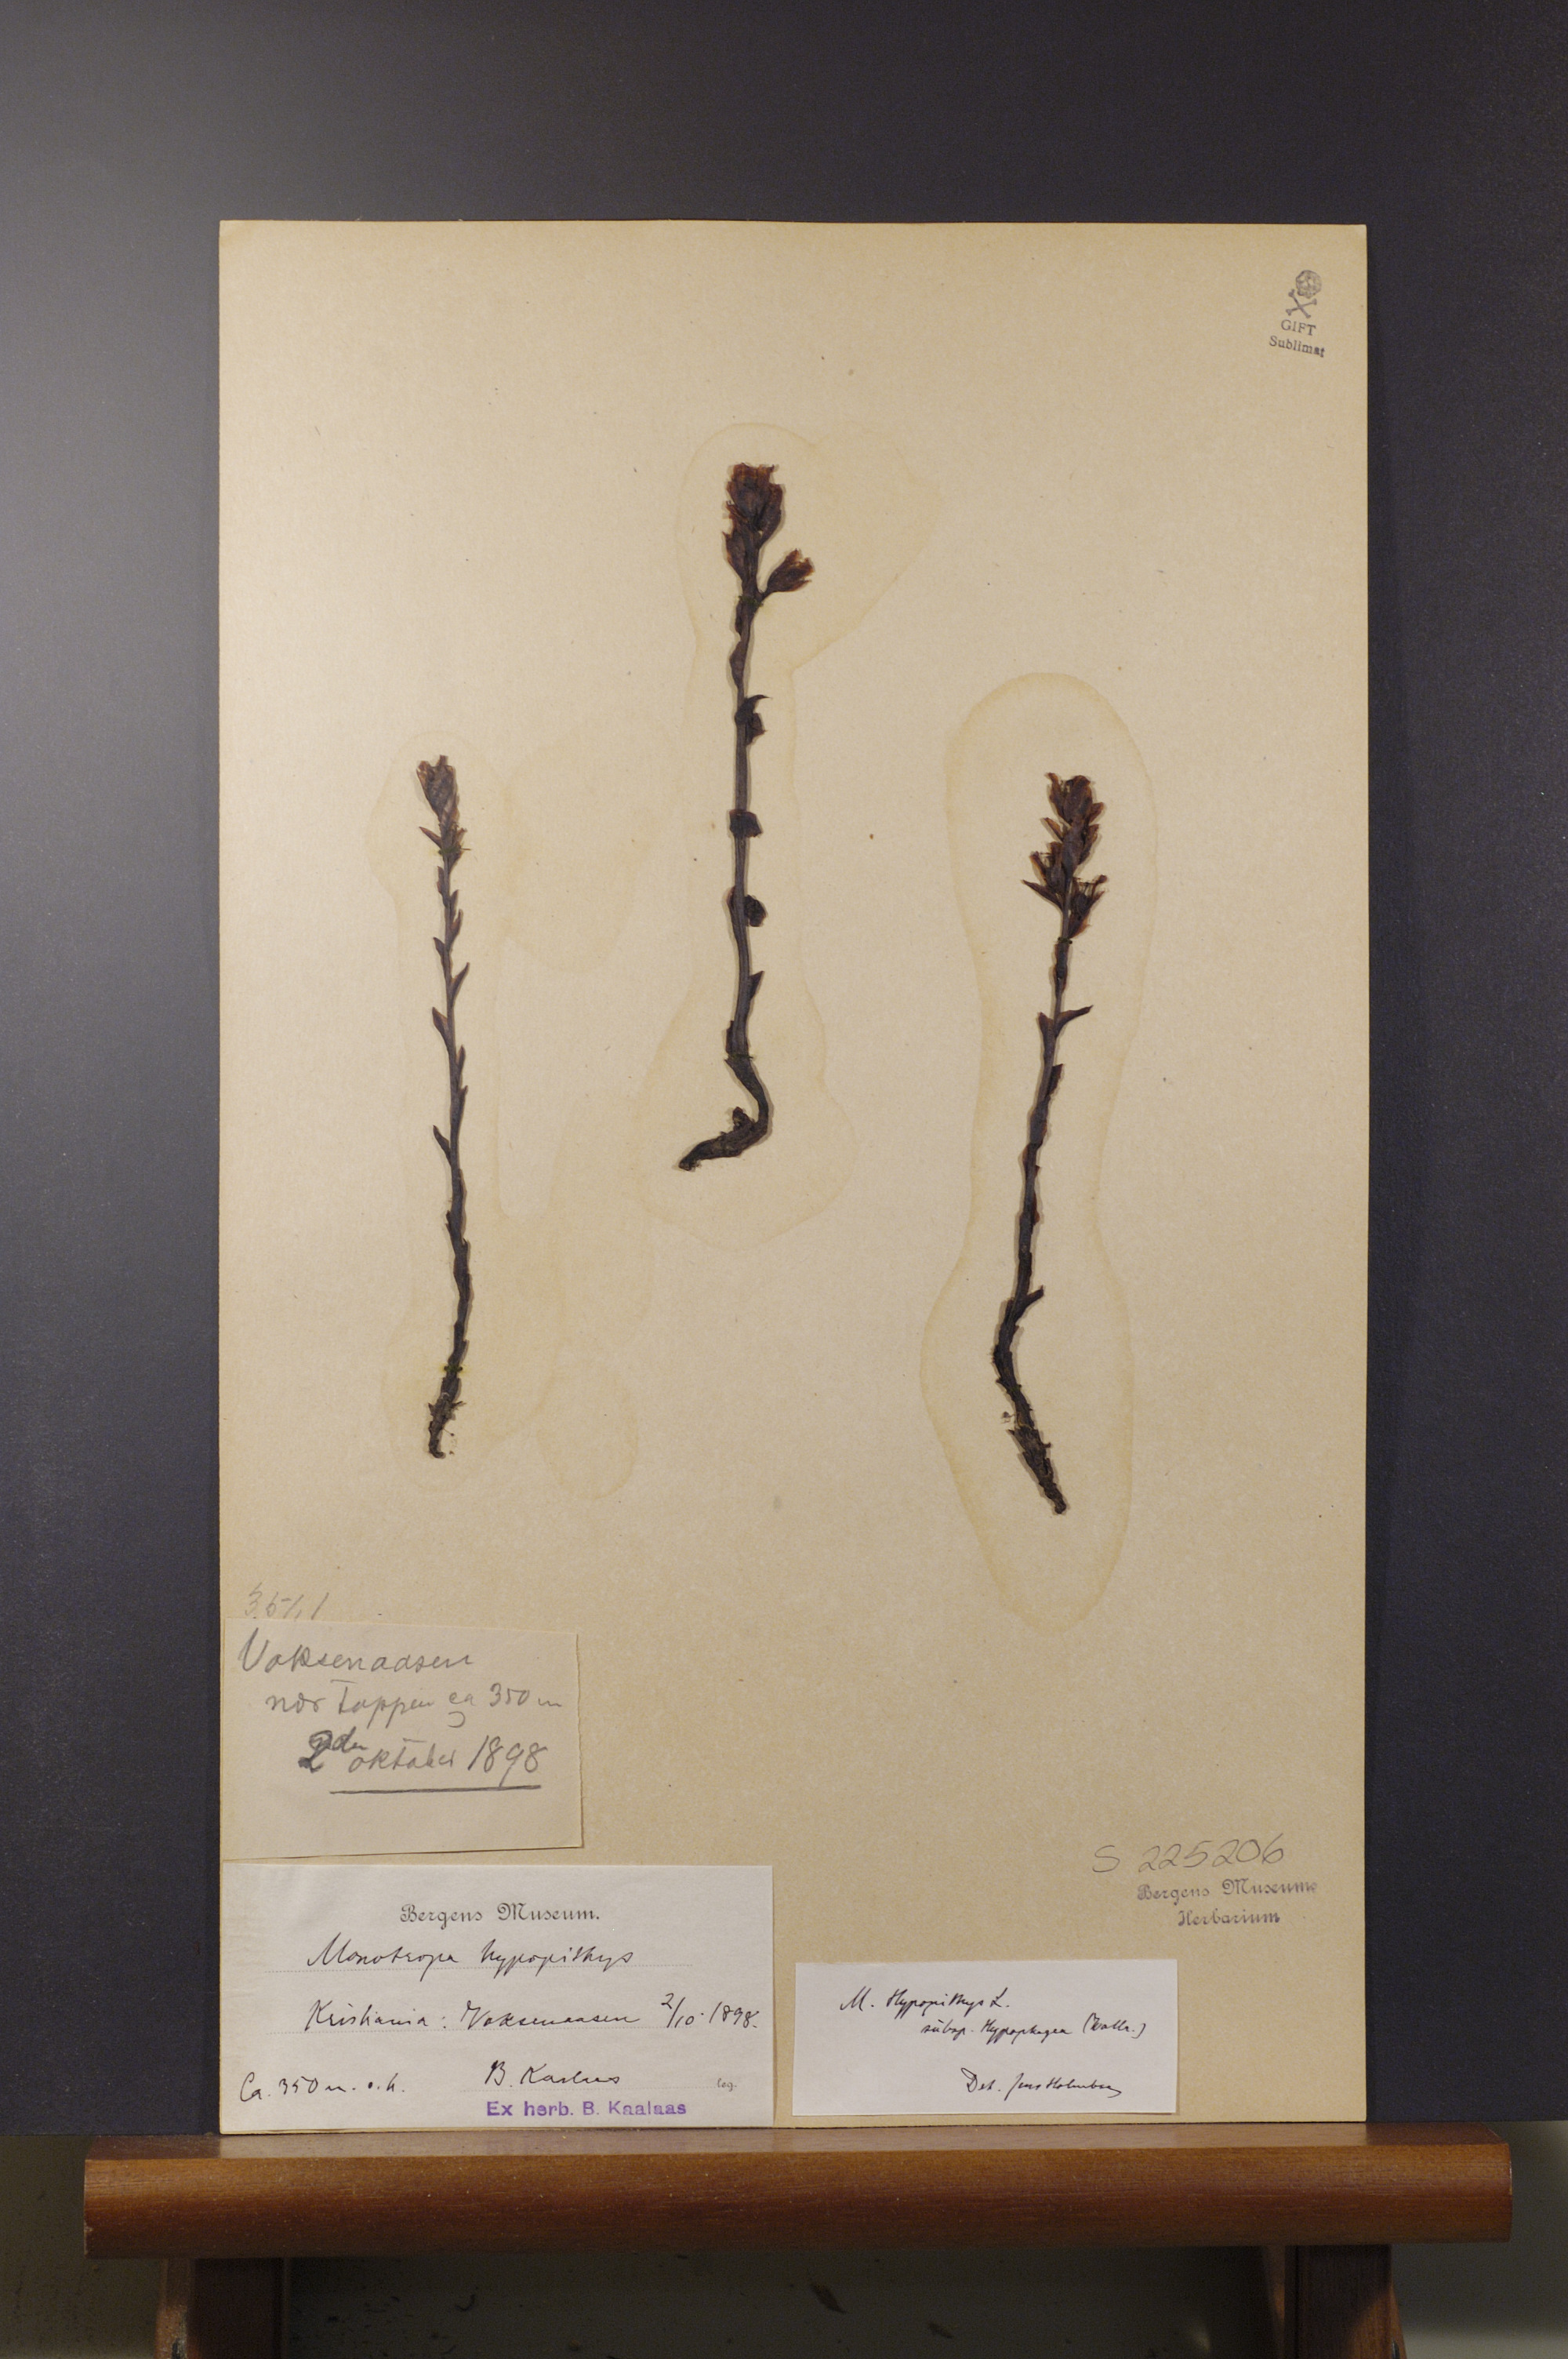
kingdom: Plantae
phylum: Tracheophyta
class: Magnoliopsida
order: Ericales
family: Ericaceae
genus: Hypopitys
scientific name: Hypopitys hypophegea
